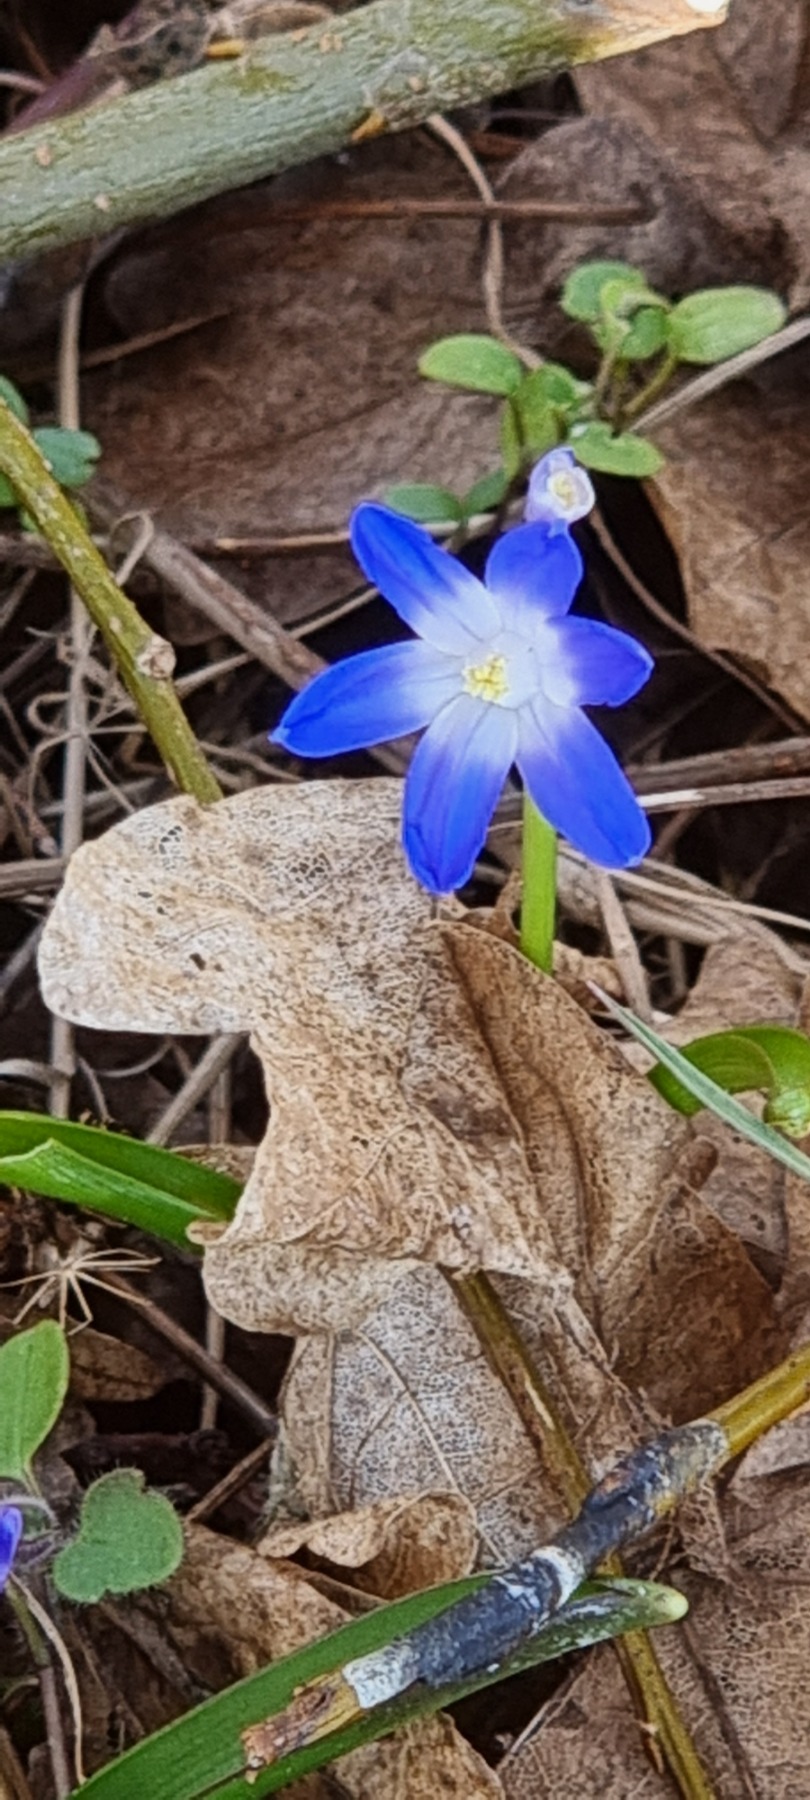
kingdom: Plantae
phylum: Tracheophyta
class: Liliopsida
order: Asparagales
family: Asparagaceae
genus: Scilla
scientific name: Scilla forbesii
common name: Almindelig snepryd
